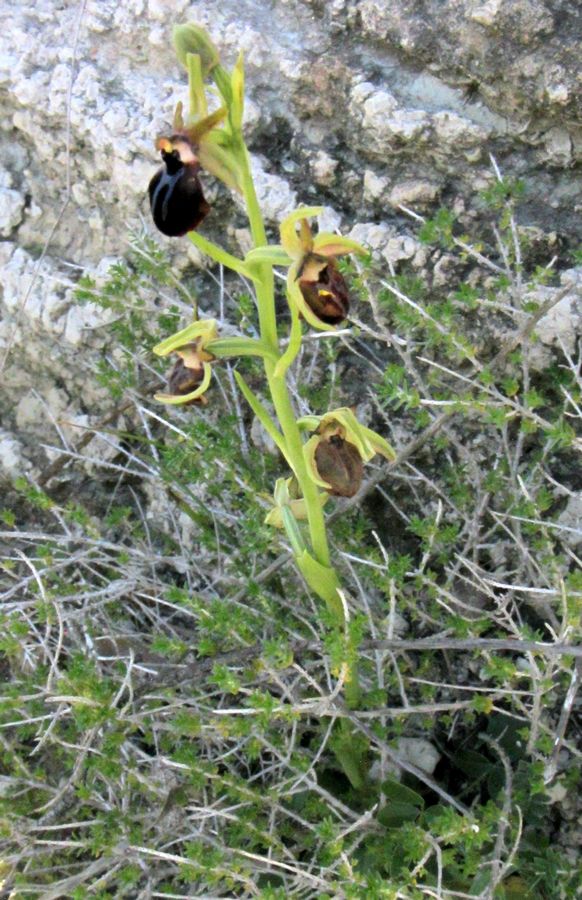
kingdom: Plantae
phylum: Tracheophyta
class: Liliopsida
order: Asparagales
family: Orchidaceae
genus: Ophrys
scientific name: Ophrys sphegodes
